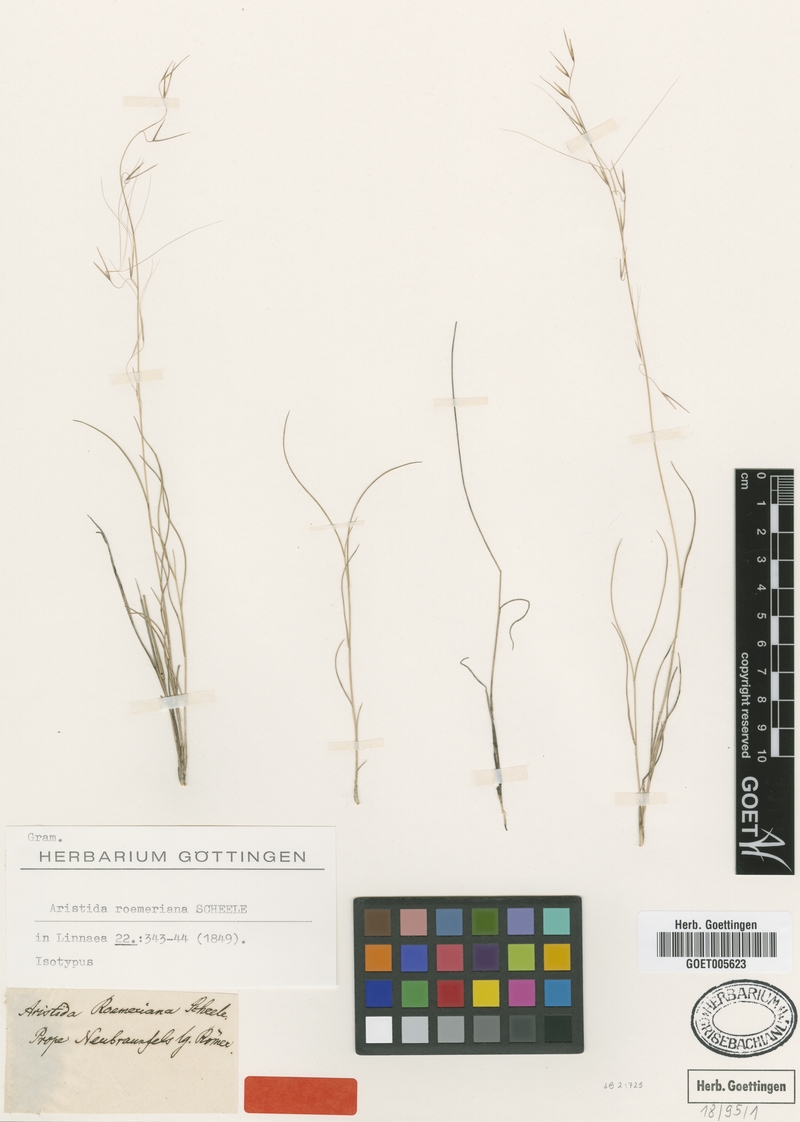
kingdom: Plantae
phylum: Tracheophyta
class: Liliopsida
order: Poales
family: Poaceae
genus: Aristida
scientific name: Aristida purpurea
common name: Purple threeawn
